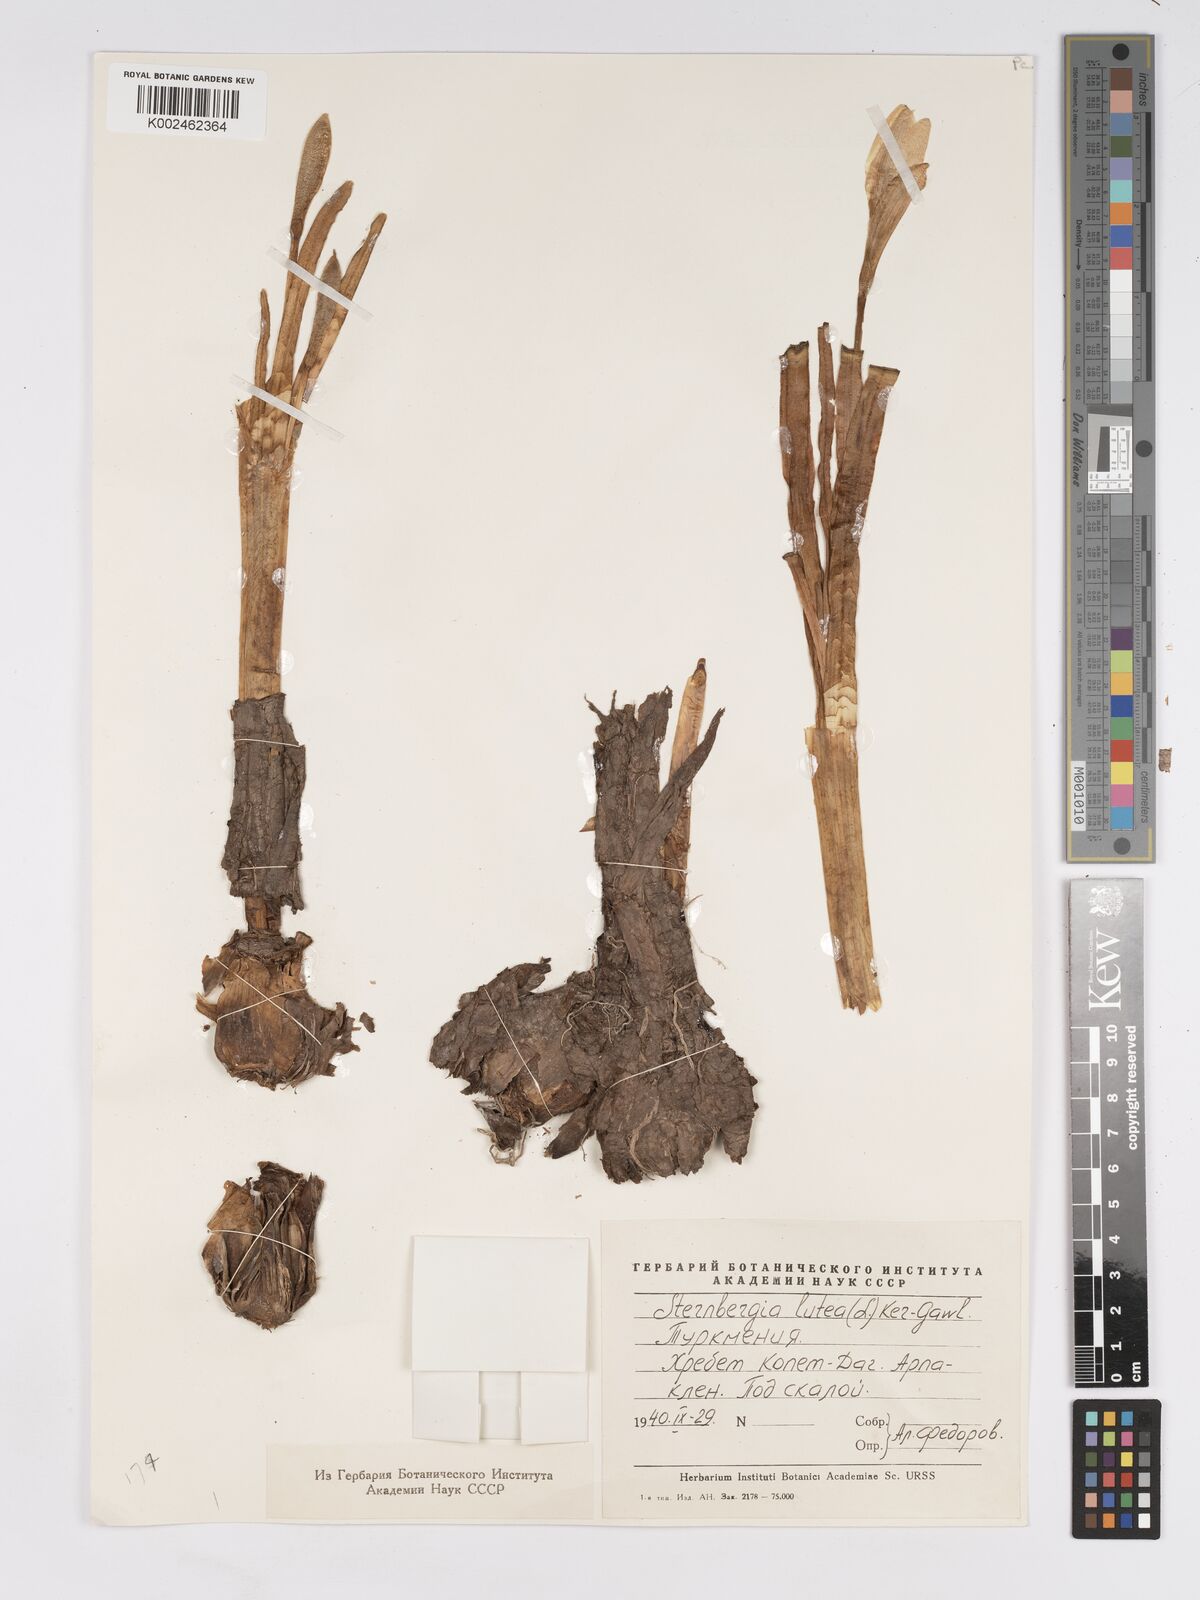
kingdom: Plantae
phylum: Tracheophyta
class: Liliopsida
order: Asparagales
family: Amaryllidaceae
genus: Sternbergia
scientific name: Sternbergia lutea
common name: Winter daffodil
